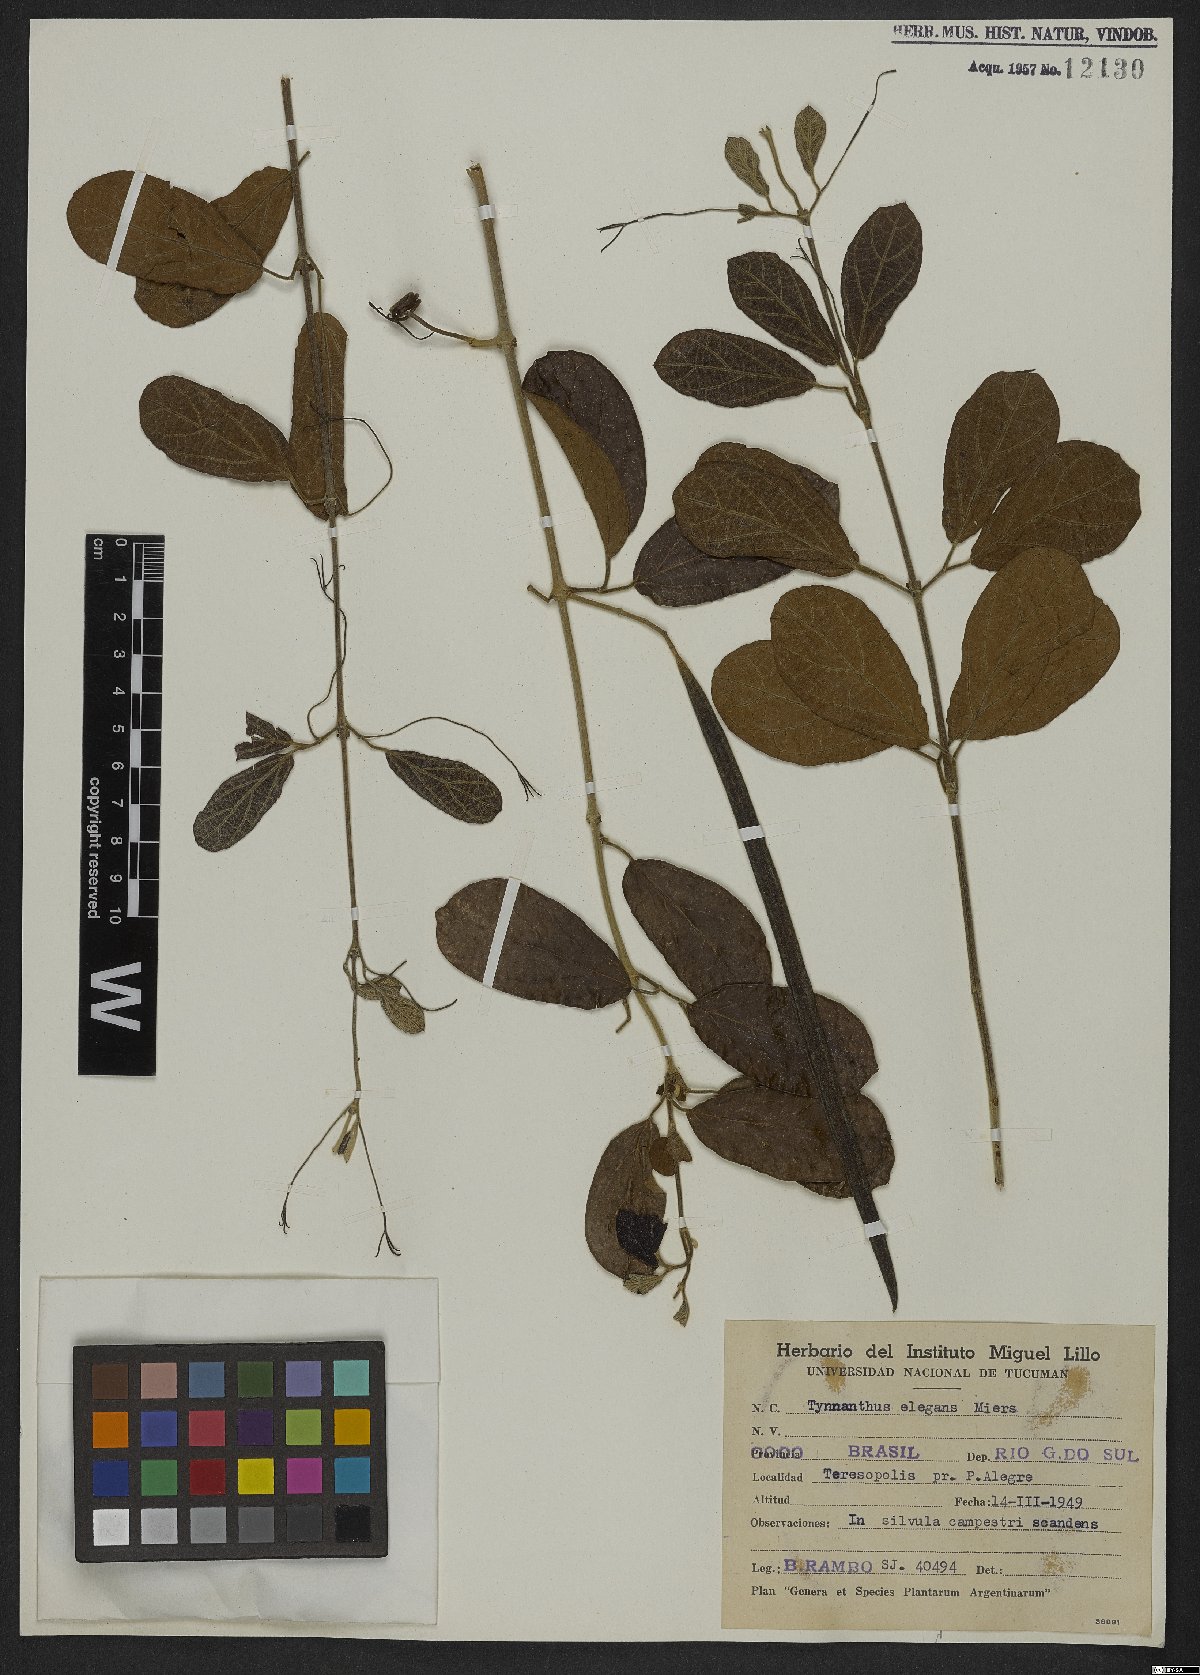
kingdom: Plantae
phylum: Tracheophyta
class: Magnoliopsida
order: Lamiales
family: Bignoniaceae
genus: Tynanthus
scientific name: Tynanthus elegans
